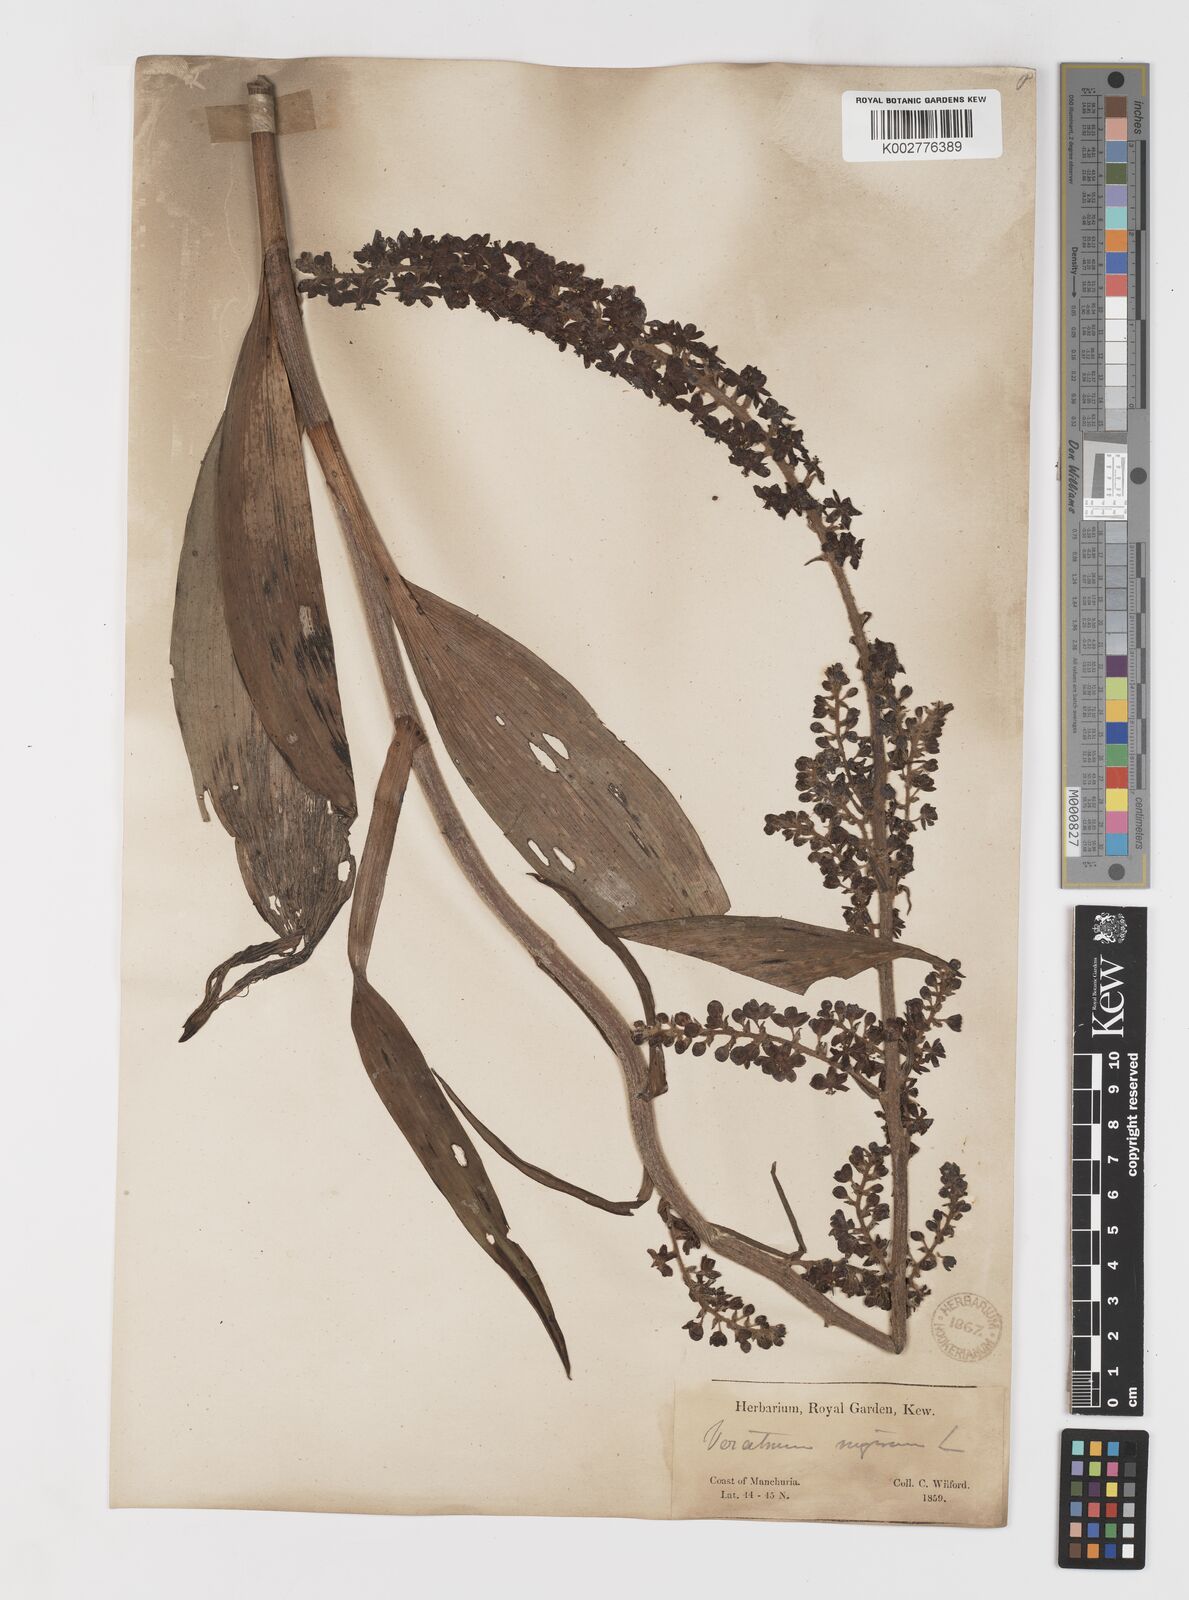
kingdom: Plantae
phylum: Tracheophyta
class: Liliopsida
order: Liliales
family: Melanthiaceae
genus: Veratrum
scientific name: Veratrum nigrum
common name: Black veratrum
